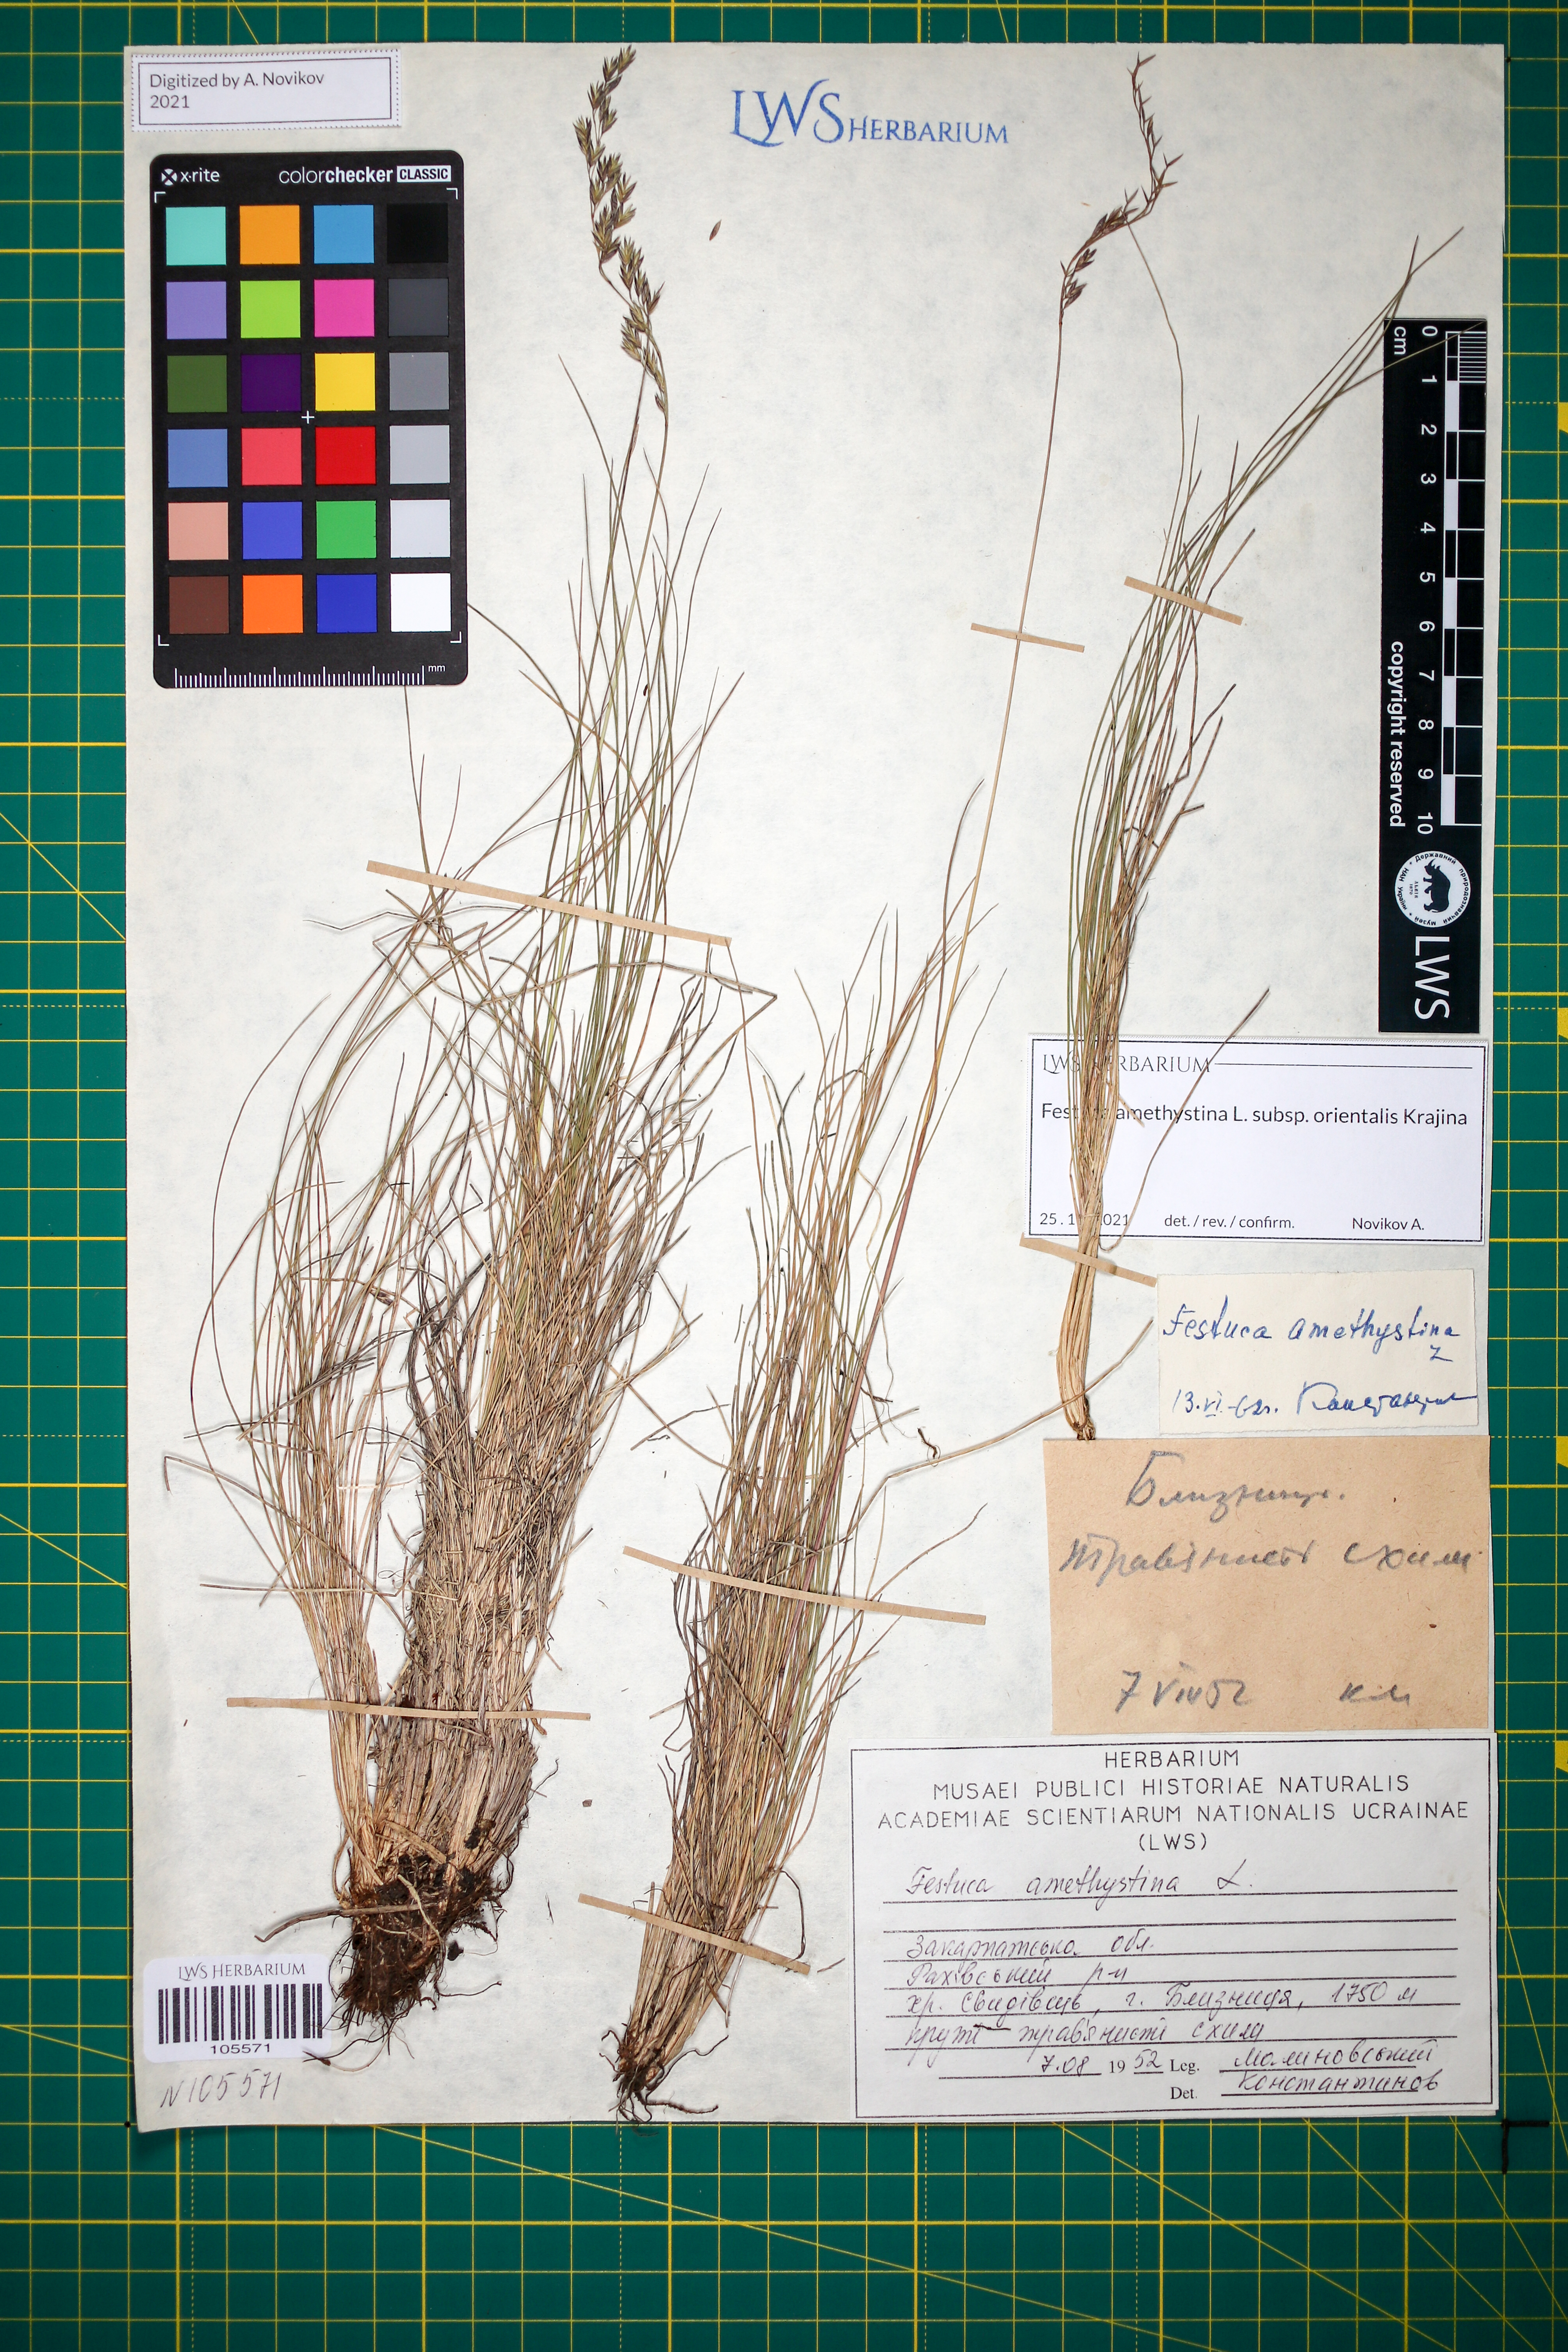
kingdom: Plantae
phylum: Tracheophyta
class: Liliopsida
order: Poales
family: Poaceae
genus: Festuca
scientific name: Festuca amethystina
